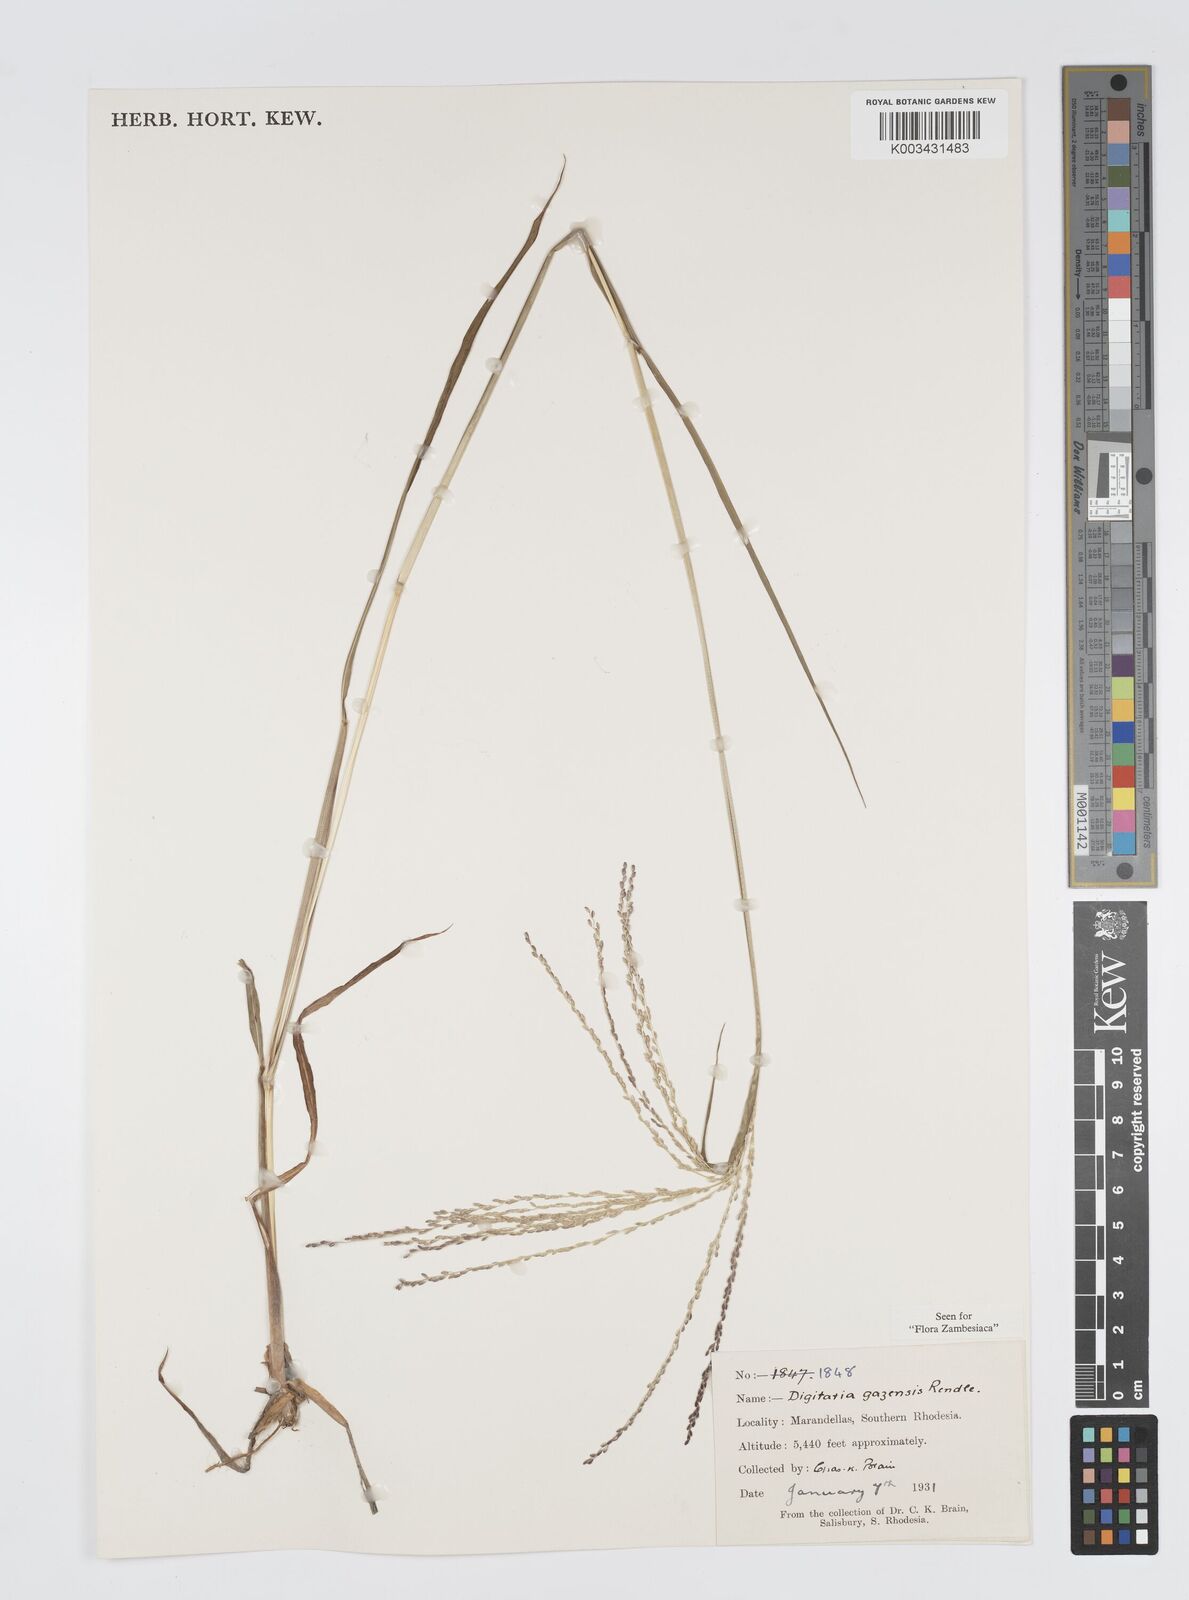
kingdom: Plantae
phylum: Tracheophyta
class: Liliopsida
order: Poales
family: Poaceae
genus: Digitaria
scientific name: Digitaria gazensis
